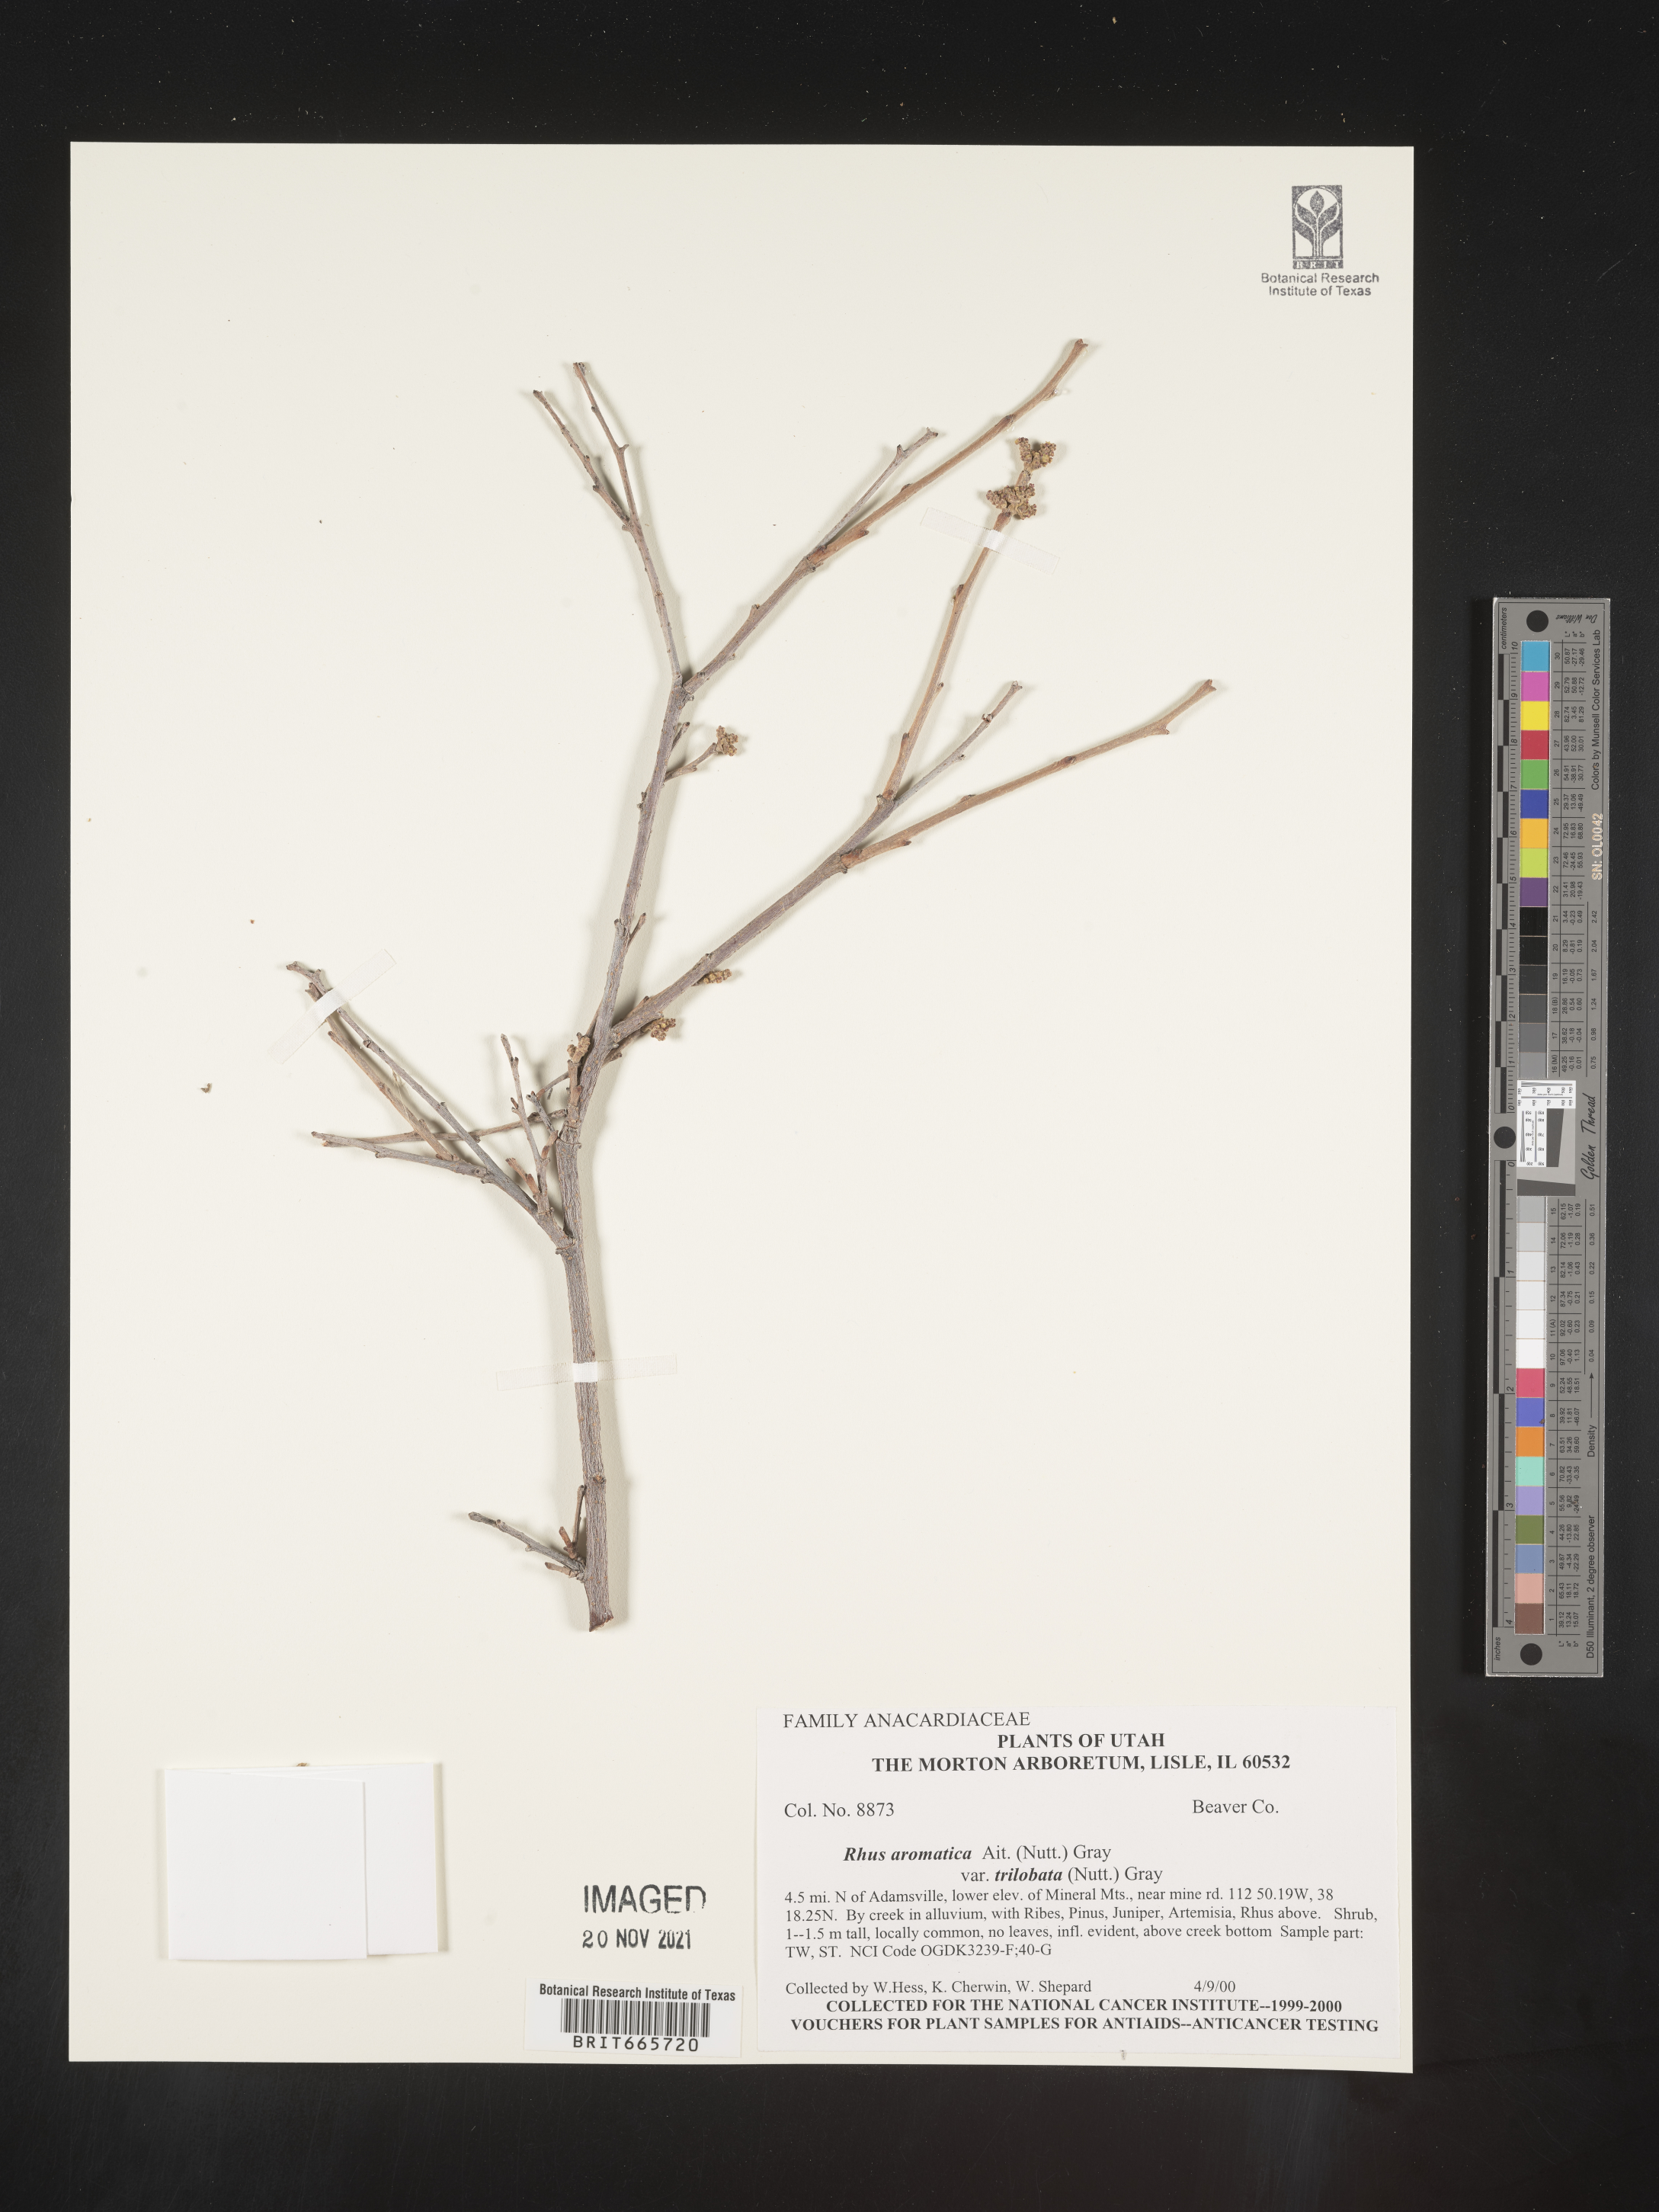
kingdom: Plantae
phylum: Tracheophyta
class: Magnoliopsida
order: Sapindales
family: Anacardiaceae
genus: Rhus
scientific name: Rhus aromatica
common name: Aromatic sumac
